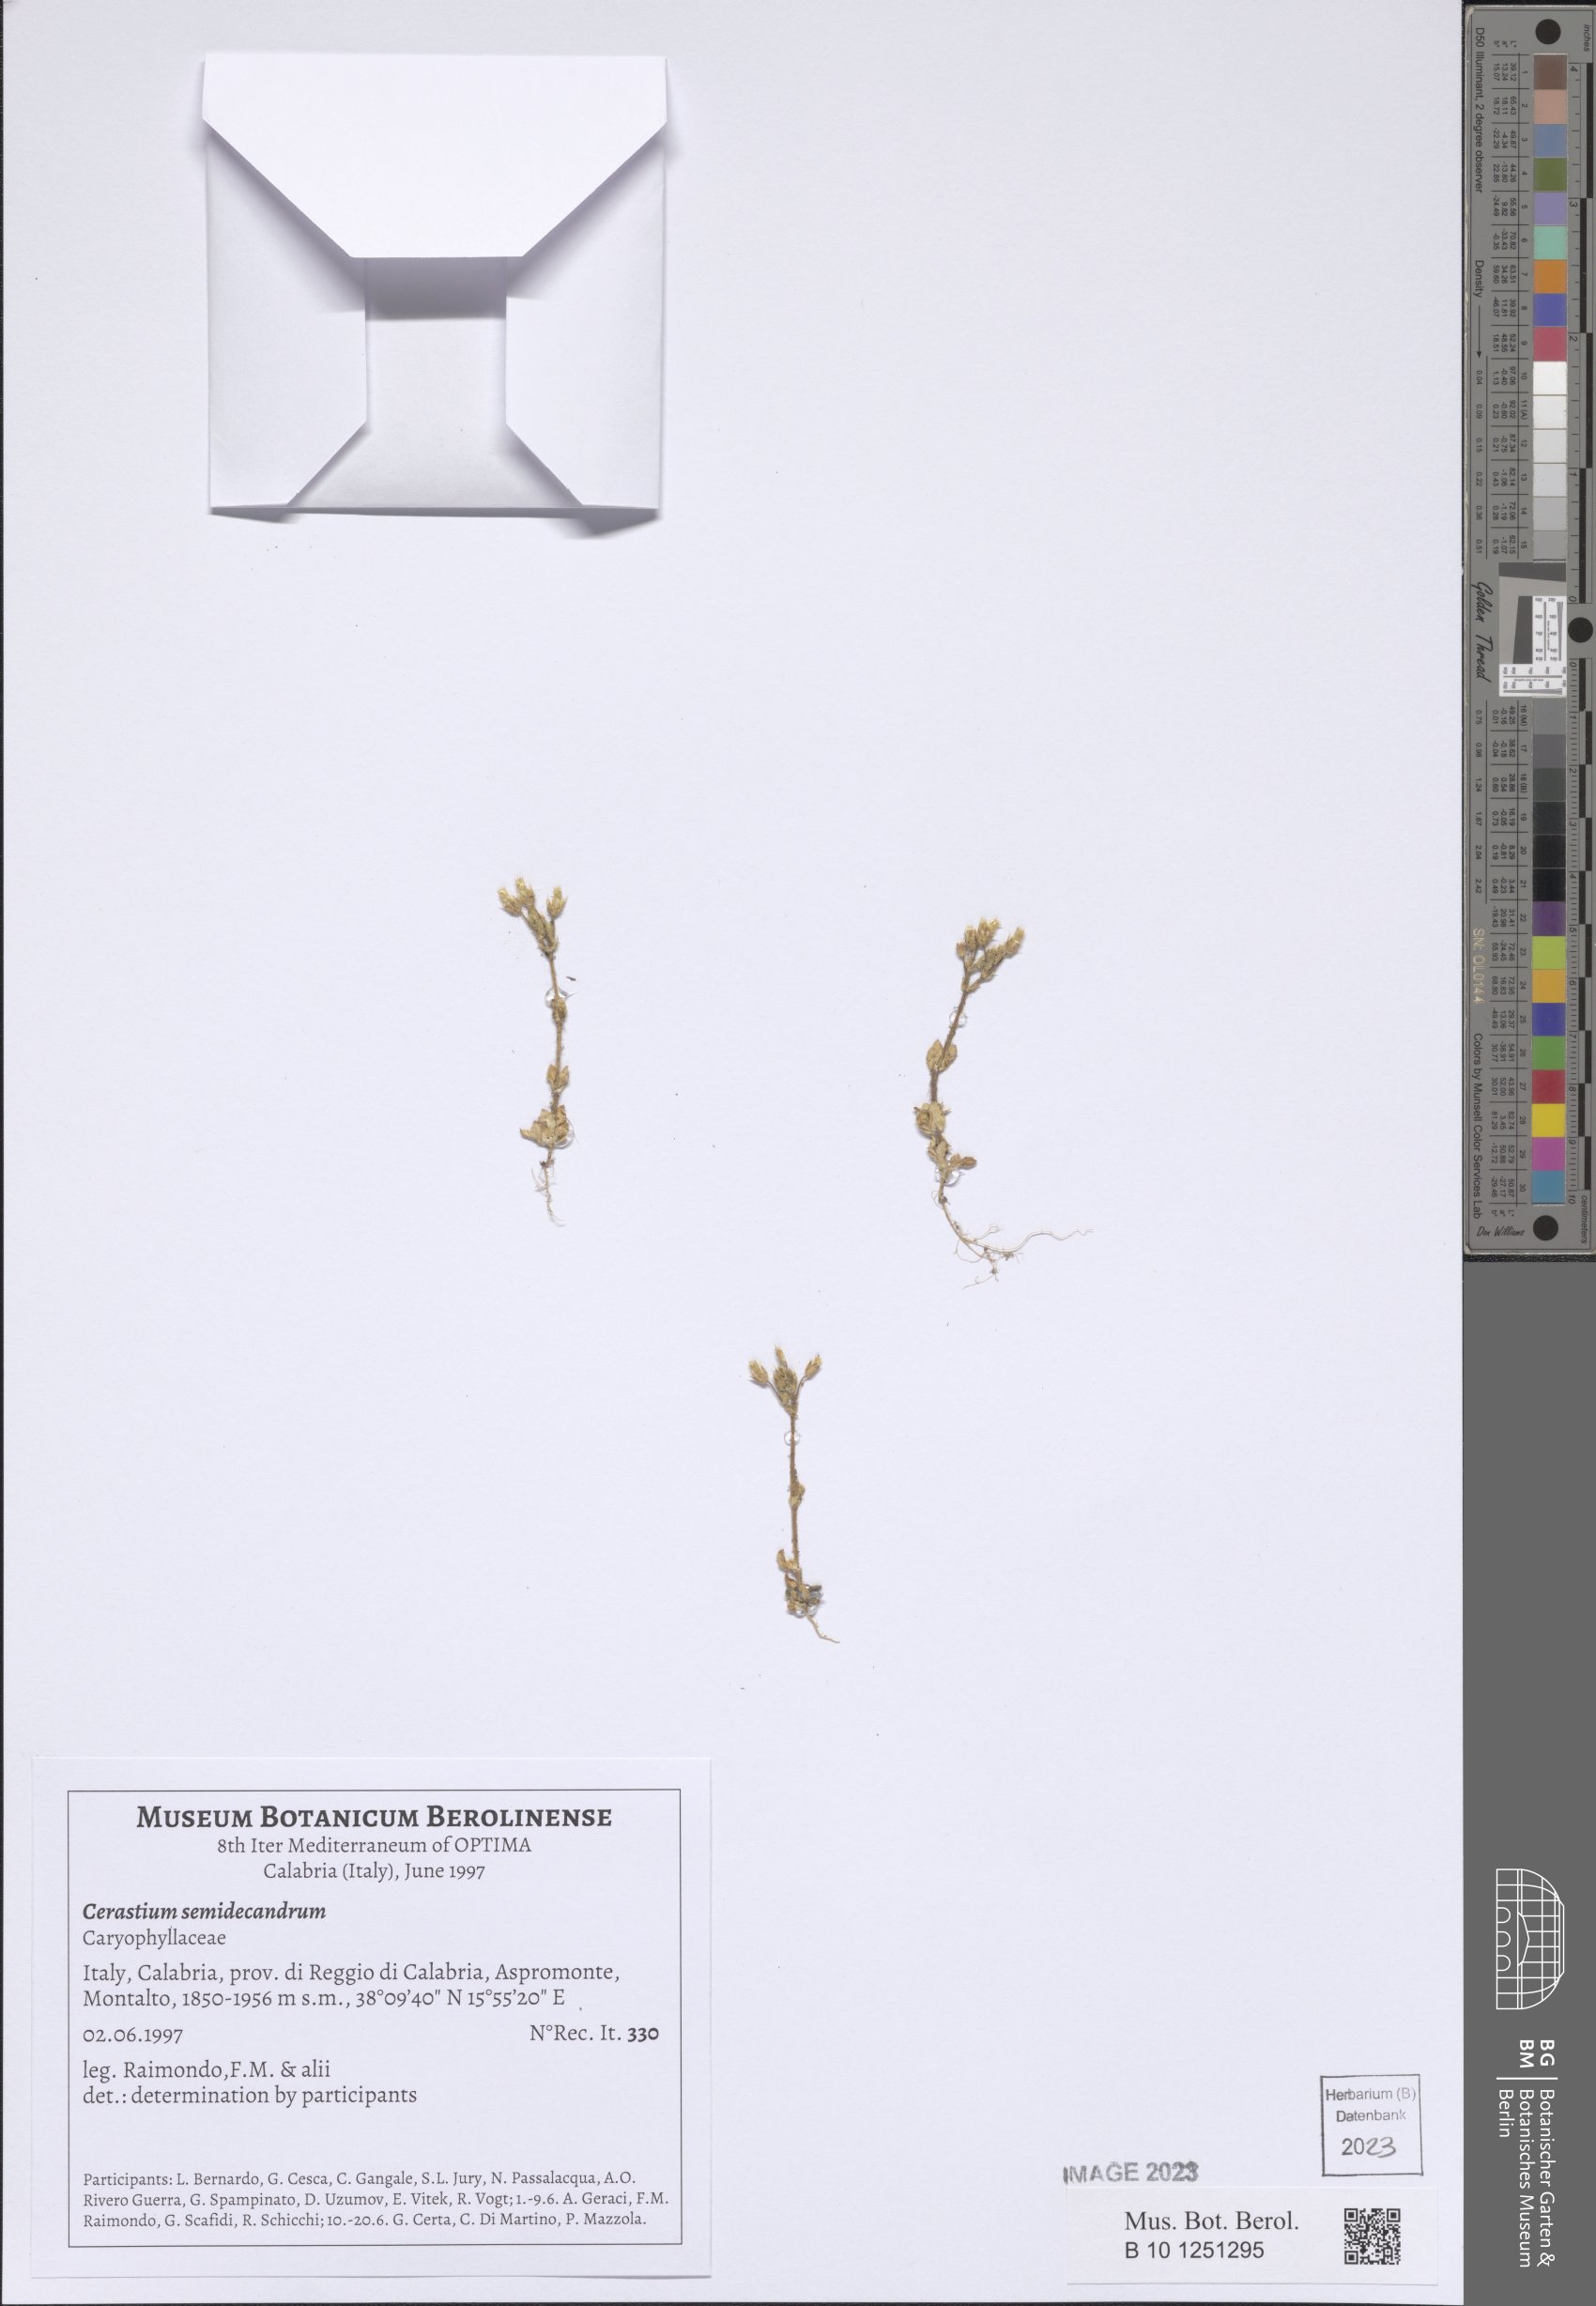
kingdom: Plantae
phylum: Tracheophyta
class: Magnoliopsida
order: Caryophyllales
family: Caryophyllaceae
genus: Cerastium
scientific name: Cerastium semidecandrum
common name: Little mouse-ear
